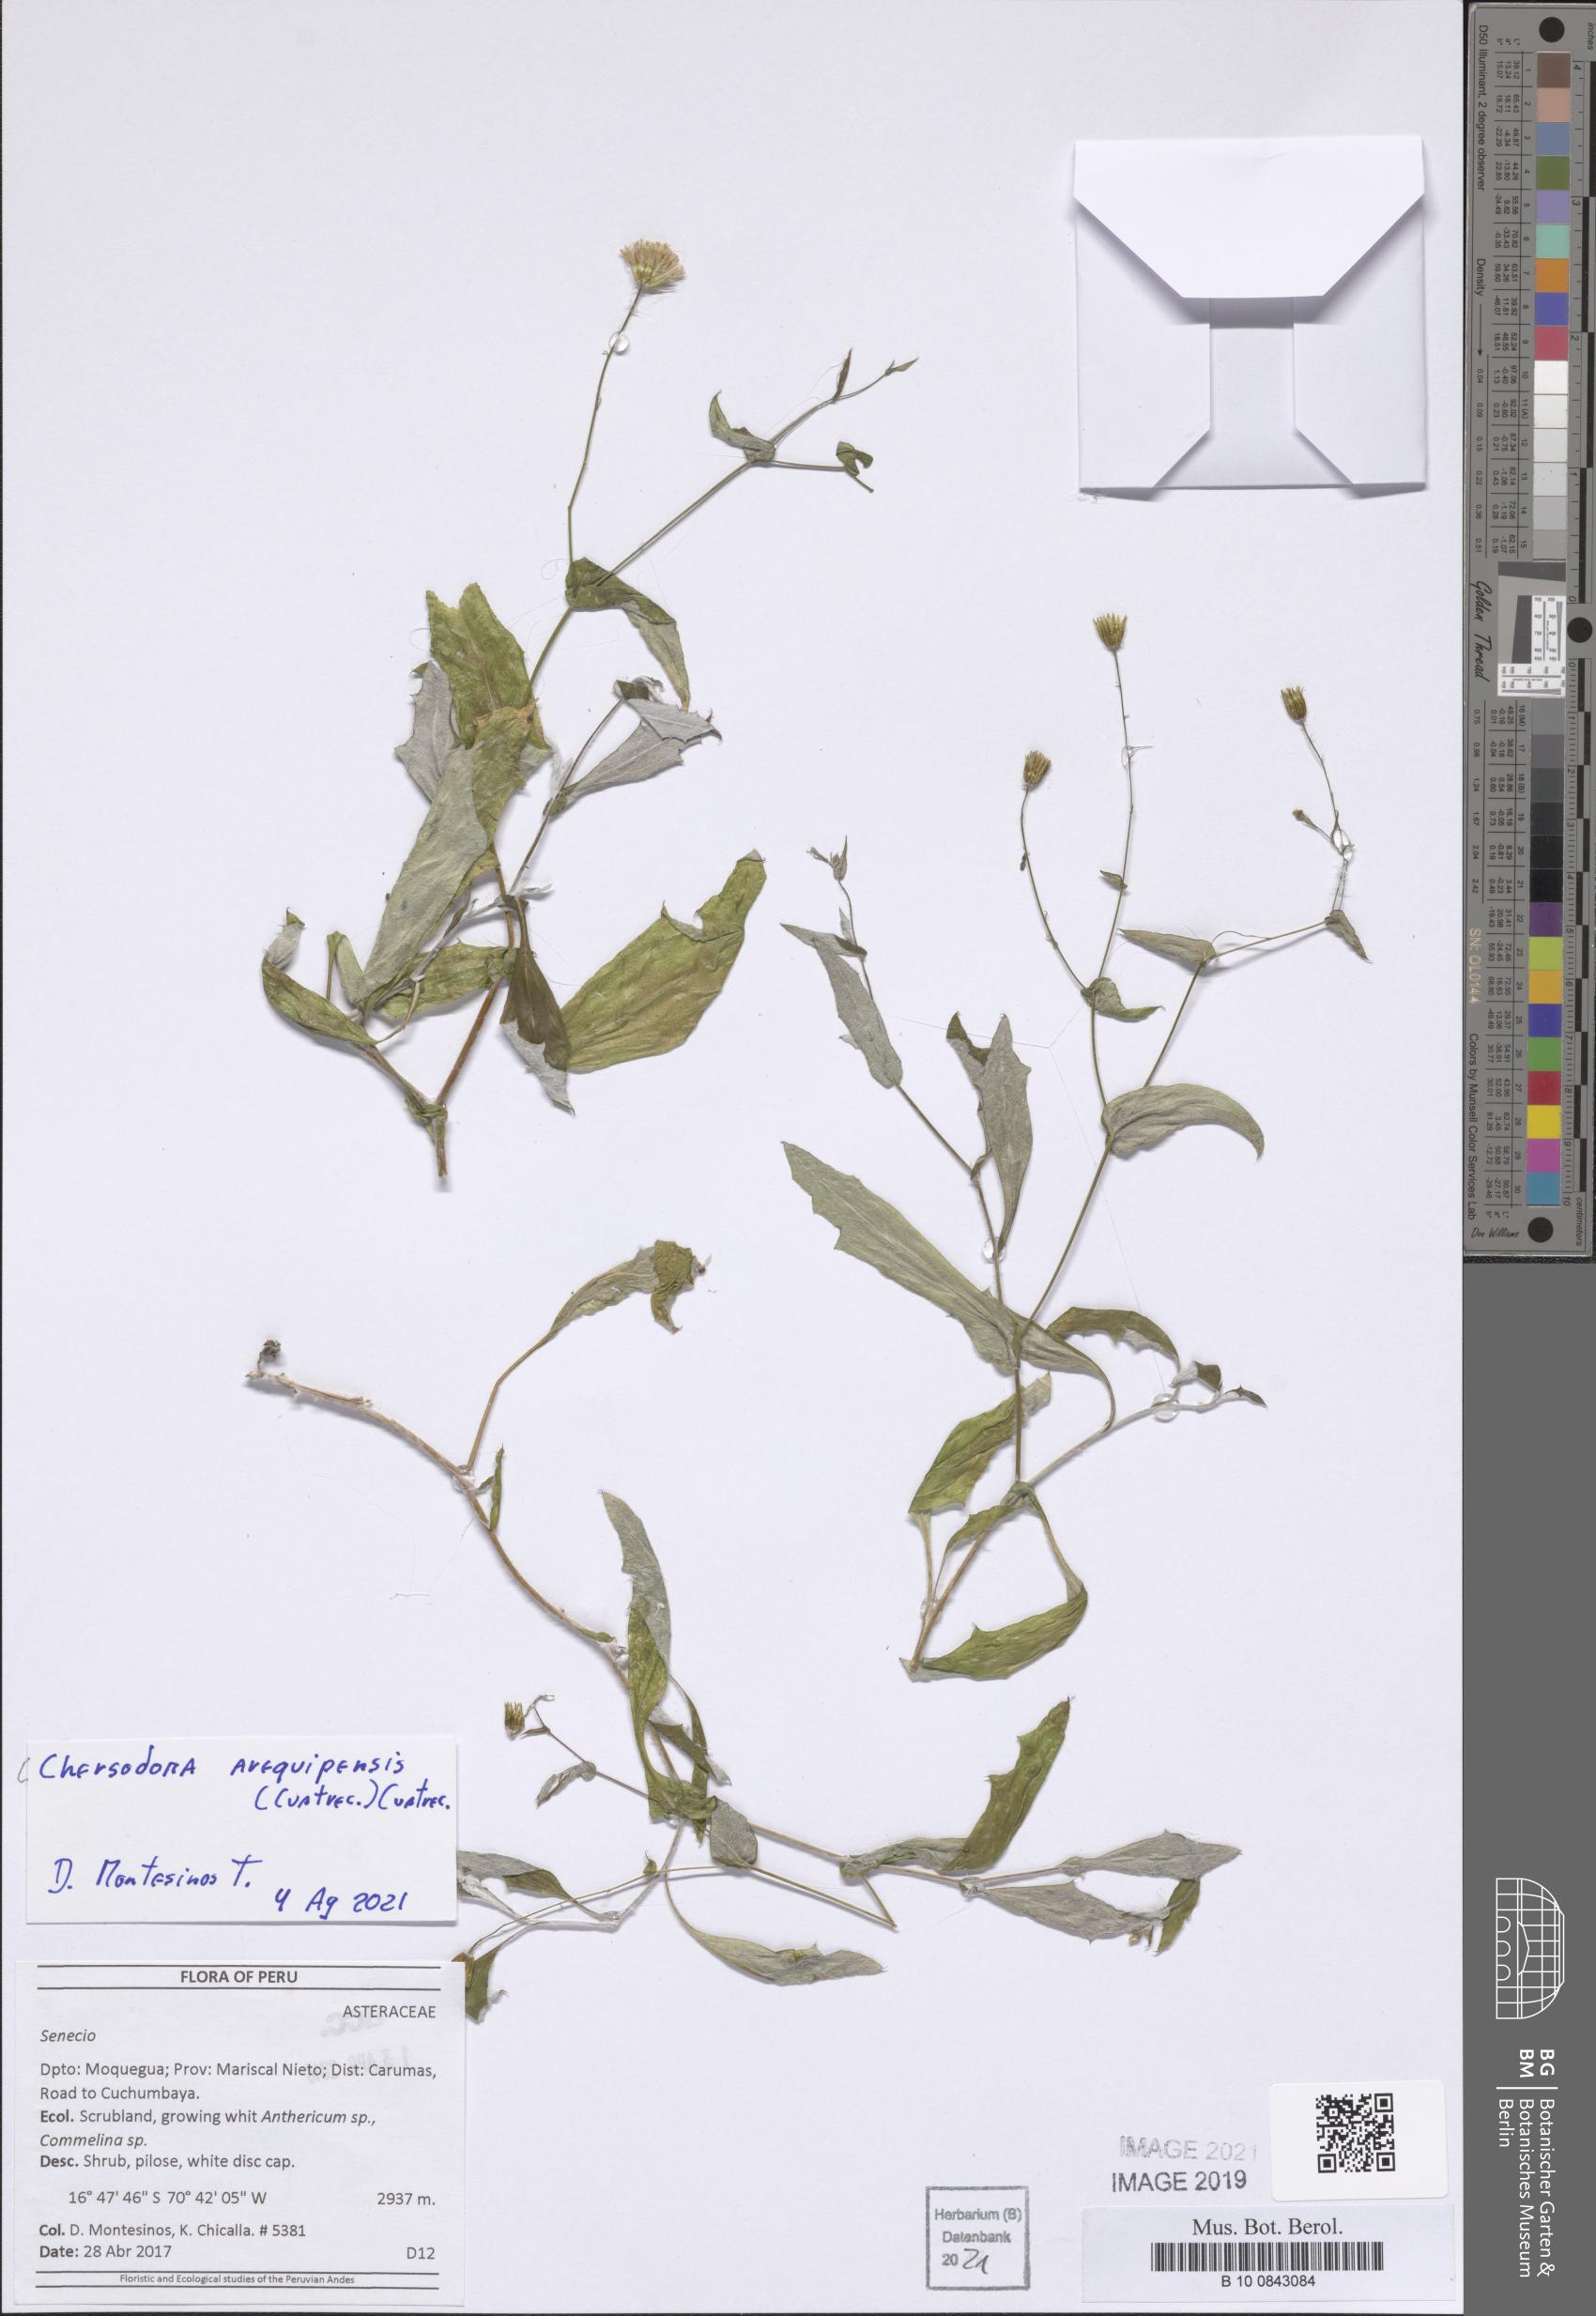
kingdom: Plantae
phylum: Tracheophyta
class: Magnoliopsida
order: Asterales
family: Asteraceae
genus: Chersodoma
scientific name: Chersodoma arequipensis
